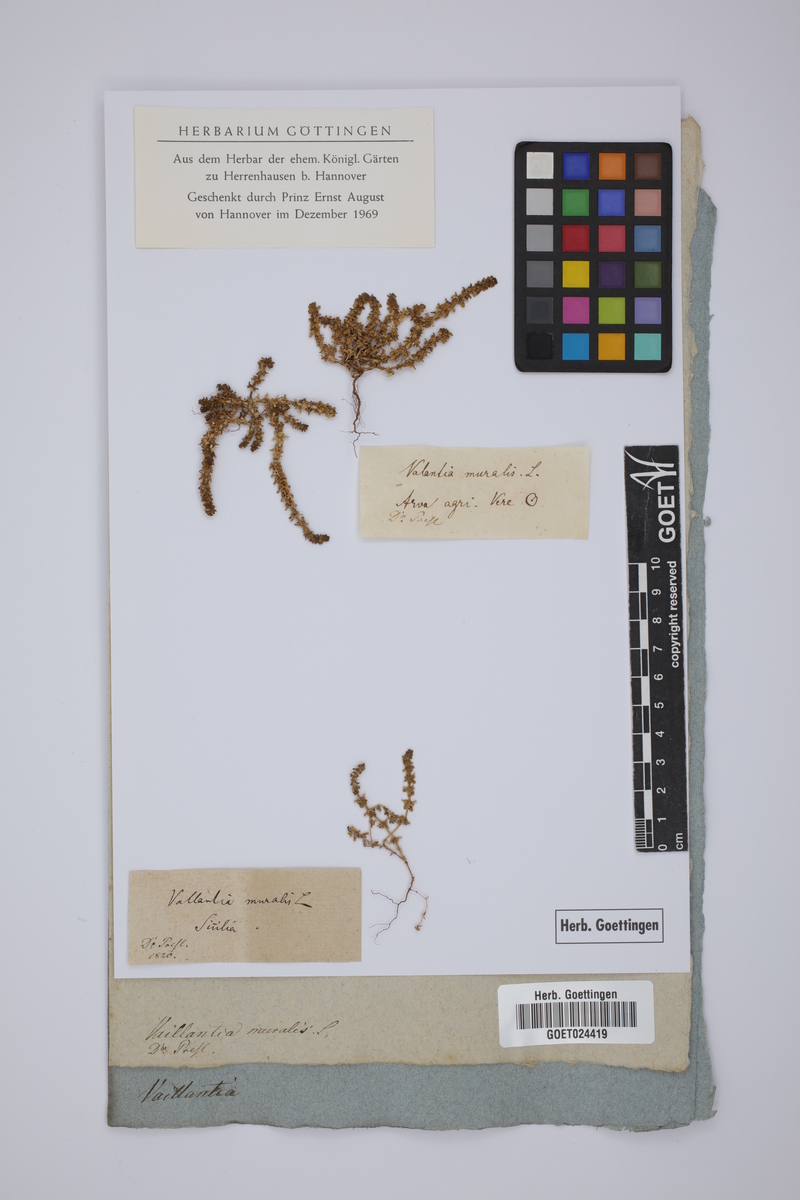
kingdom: Plantae
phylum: Tracheophyta
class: Magnoliopsida
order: Gentianales
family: Rubiaceae
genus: Valantia
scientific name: Valantia muralis
